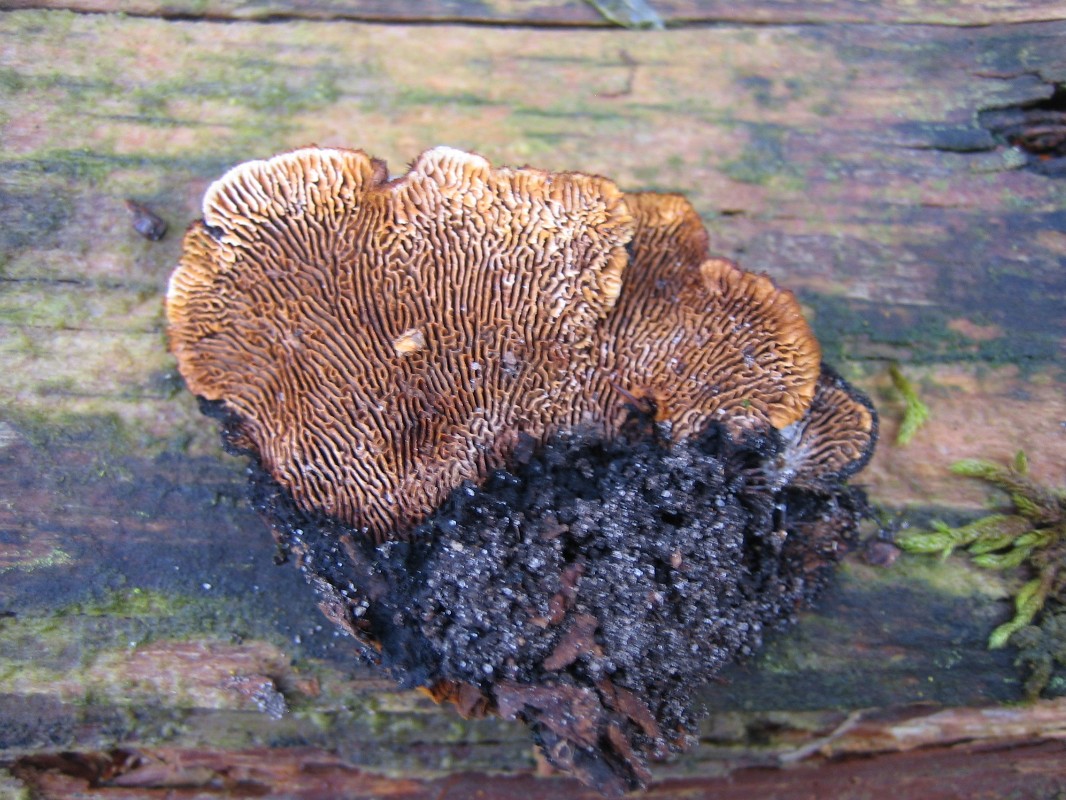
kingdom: Fungi
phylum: Basidiomycota
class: Agaricomycetes
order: Gloeophyllales
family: Gloeophyllaceae
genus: Gloeophyllum
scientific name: Gloeophyllum sepiarium
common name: fyrre-korkhat
